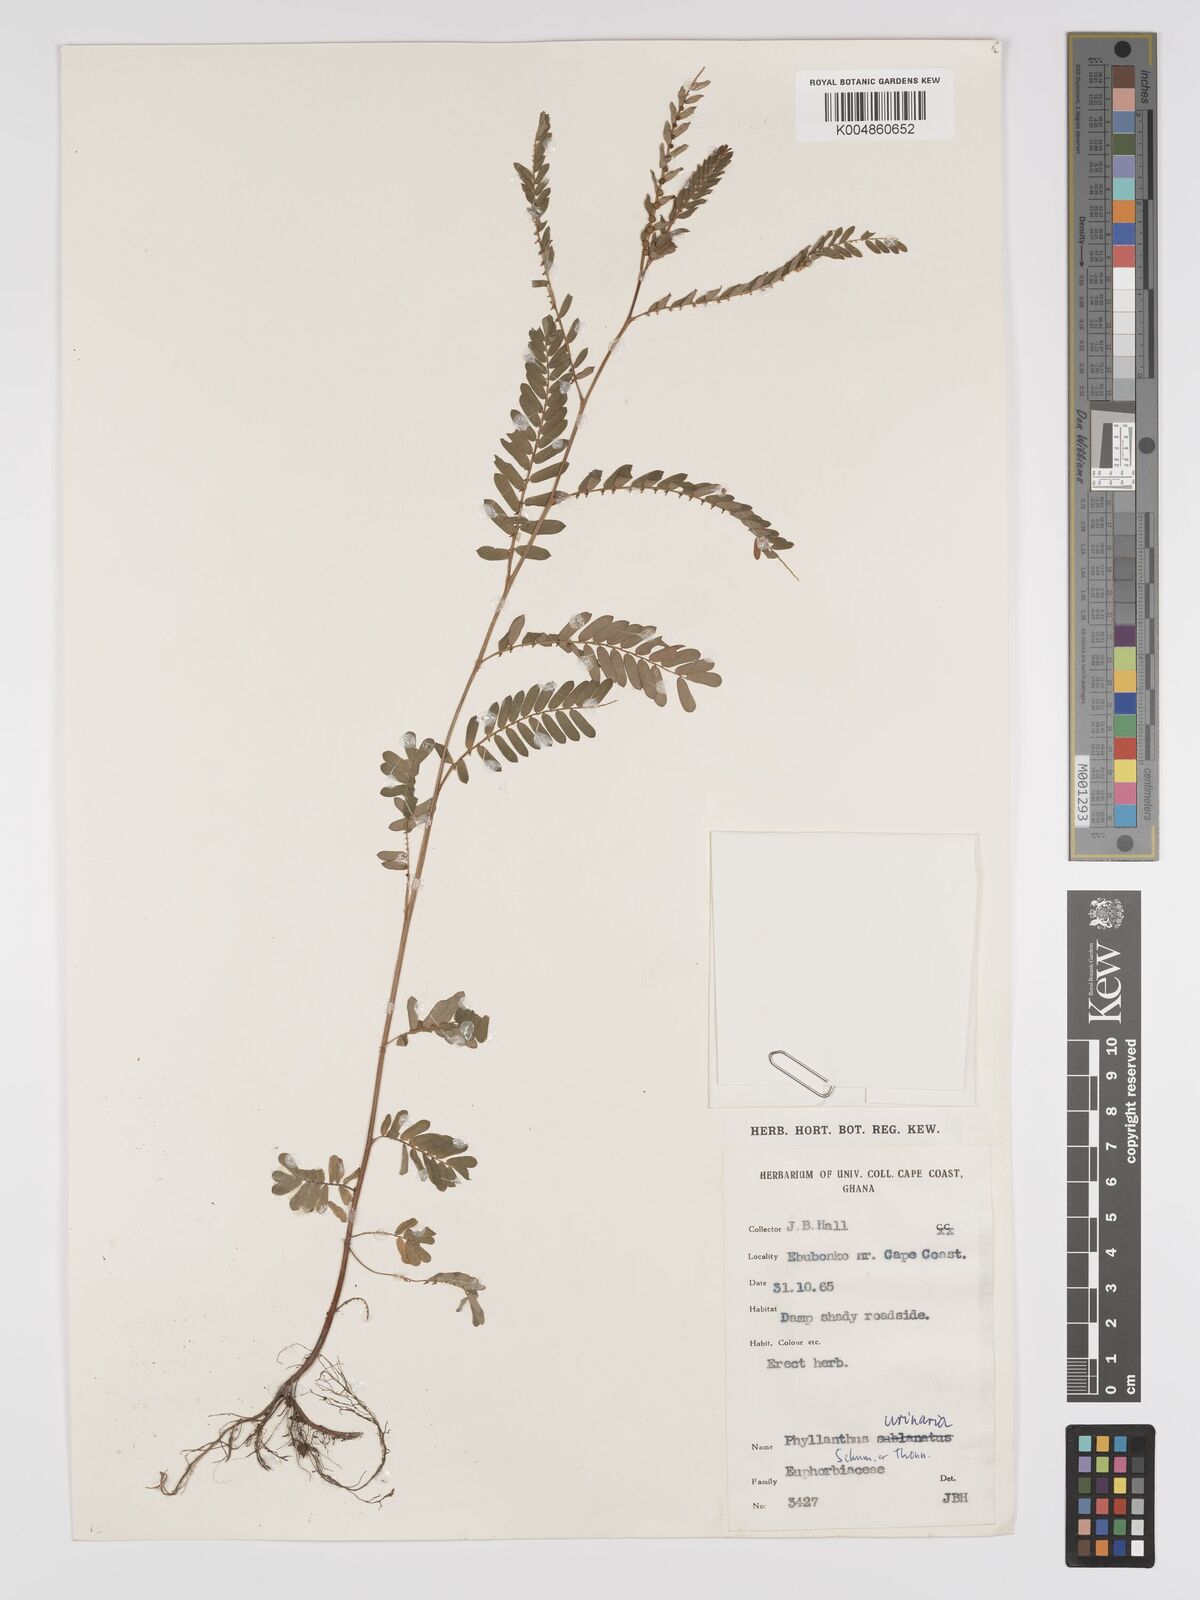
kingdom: Plantae
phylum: Tracheophyta
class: Magnoliopsida
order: Malpighiales
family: Phyllanthaceae
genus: Phyllanthus
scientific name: Phyllanthus urinaria
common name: Chamber bitter
